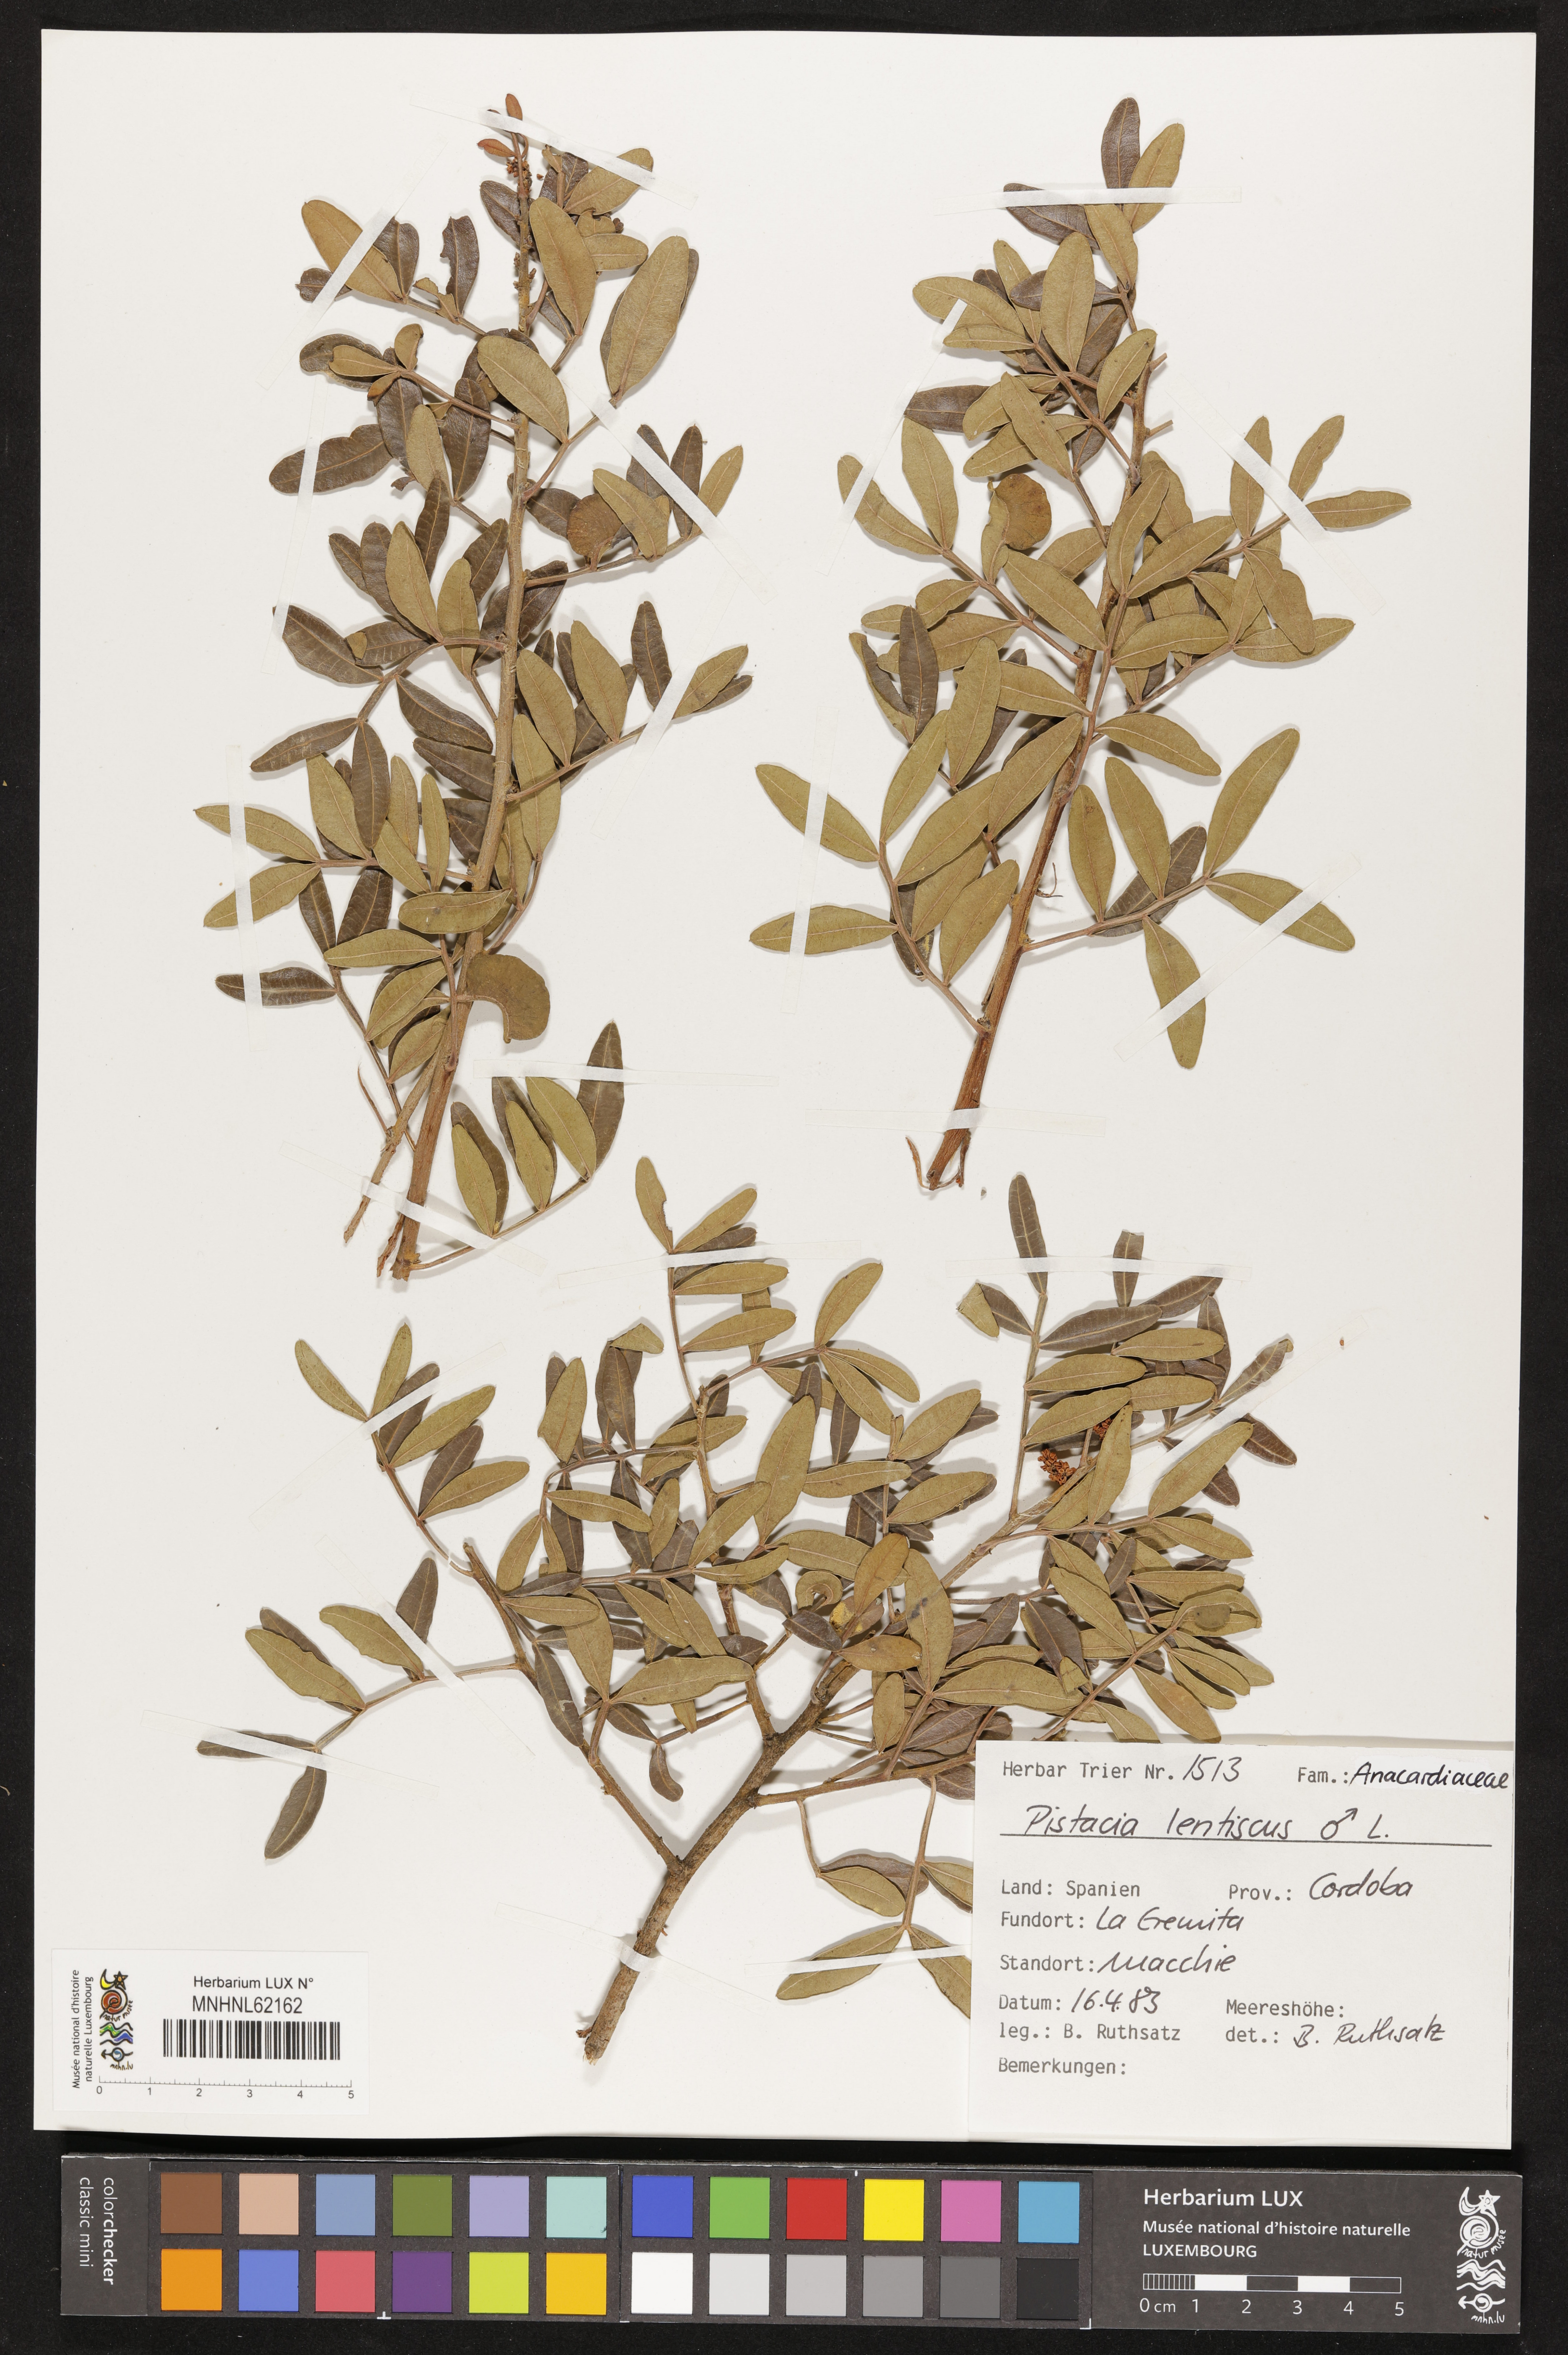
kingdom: Plantae
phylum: Tracheophyta
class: Magnoliopsida
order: Sapindales
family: Anacardiaceae
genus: Pistacia
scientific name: Pistacia lentiscus
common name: Lentisk
